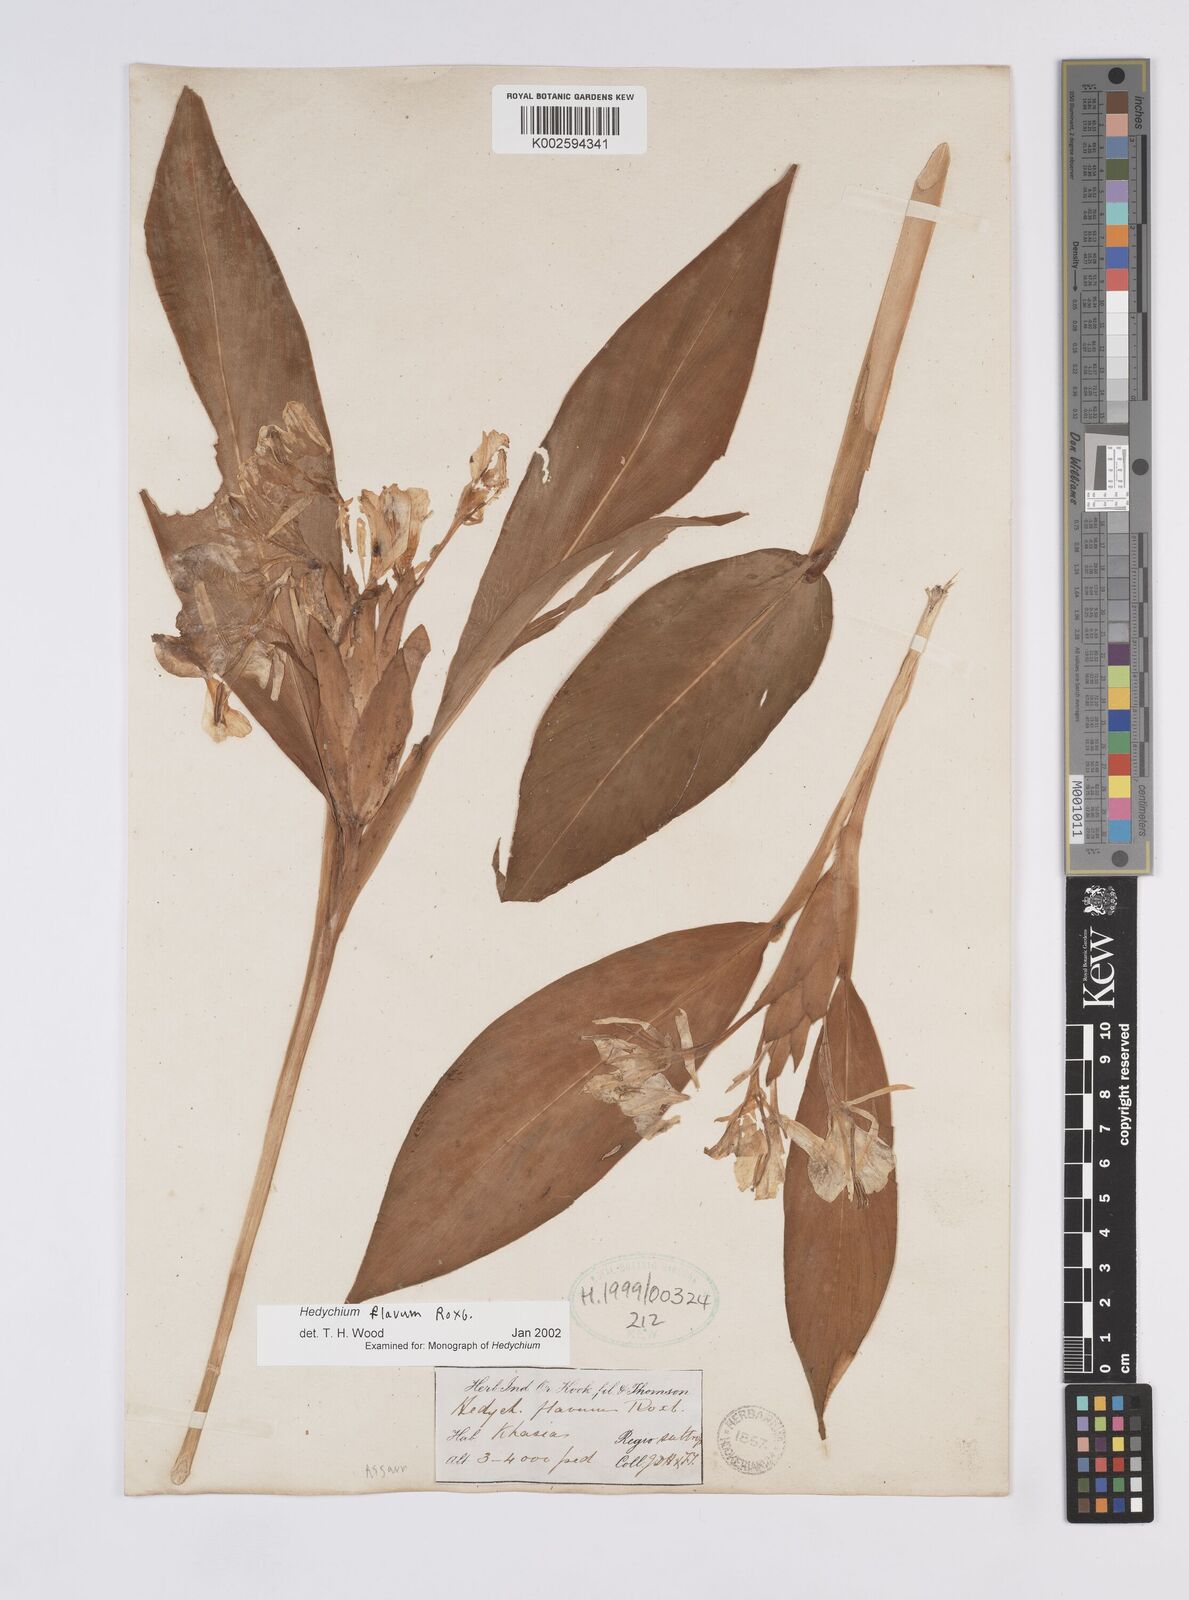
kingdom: Plantae
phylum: Tracheophyta
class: Liliopsida
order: Zingiberales
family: Zingiberaceae
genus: Hedychium
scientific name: Hedychium flavum
